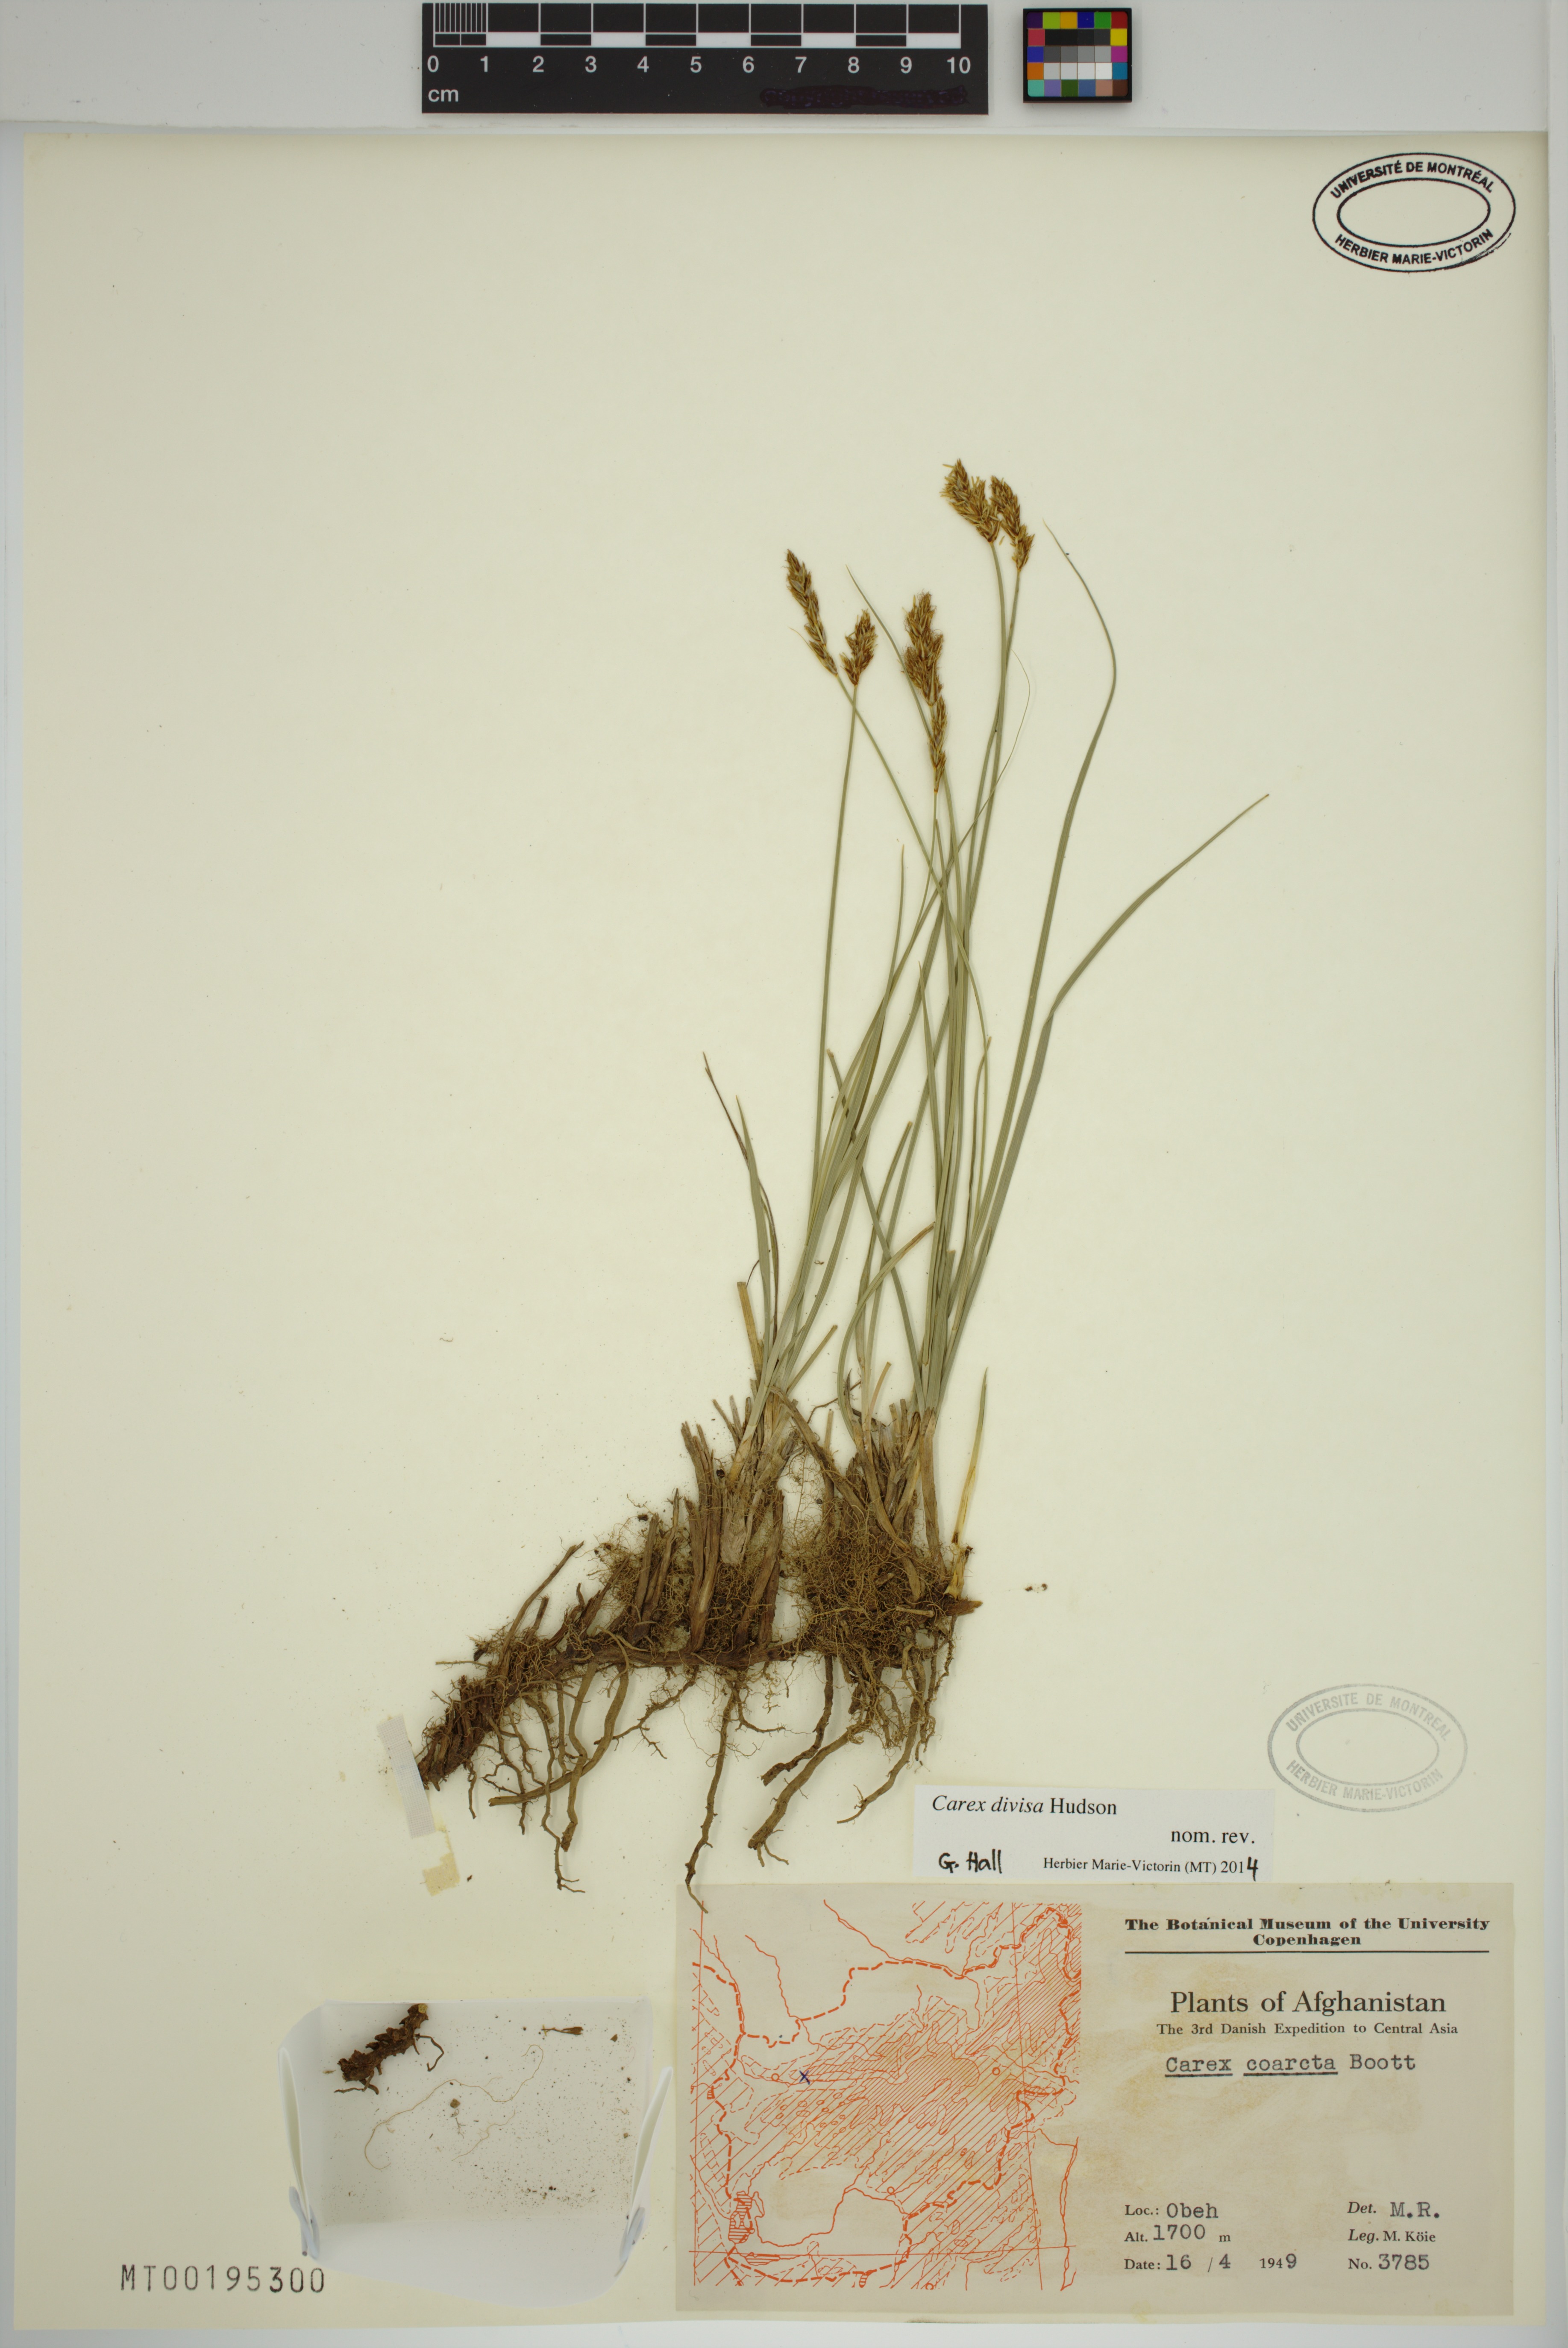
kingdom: Plantae
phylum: Tracheophyta
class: Liliopsida
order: Poales
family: Cyperaceae
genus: Carex
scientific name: Carex divisa
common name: Divided sedge
